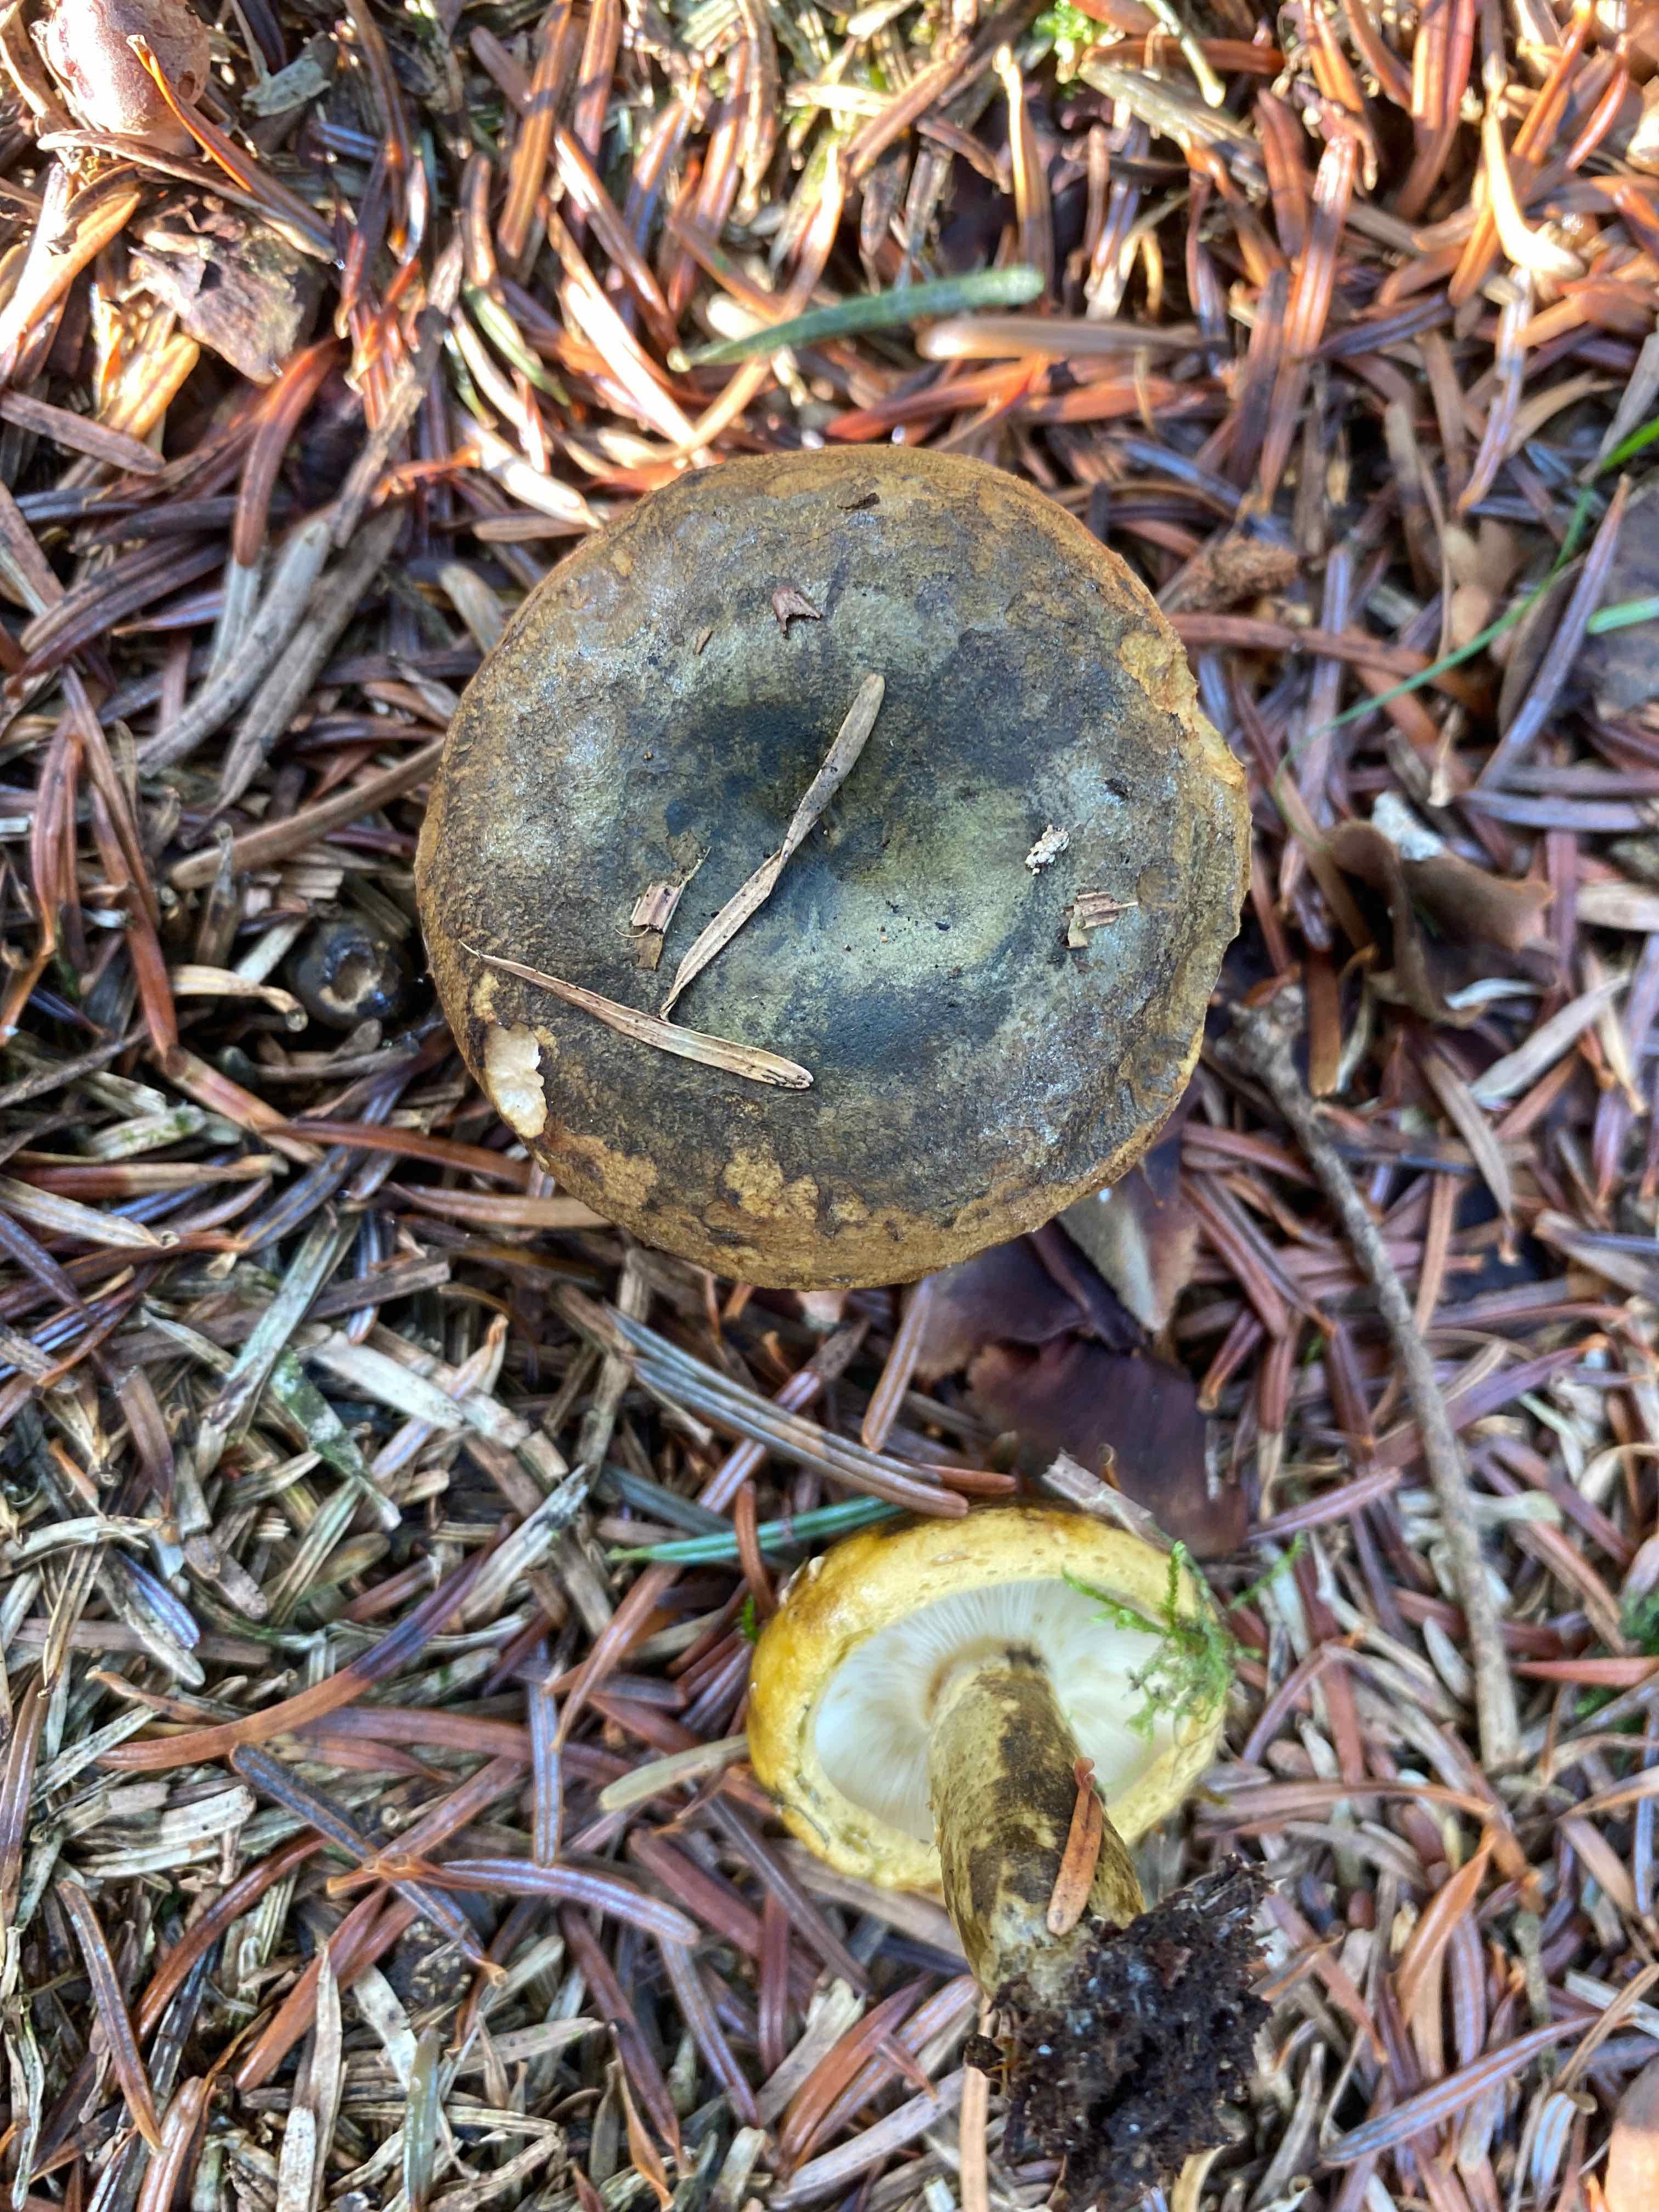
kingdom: Fungi
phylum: Basidiomycota
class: Agaricomycetes
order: Russulales
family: Russulaceae
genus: Lactarius
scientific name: Lactarius necator
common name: manddraber-mælkehat
